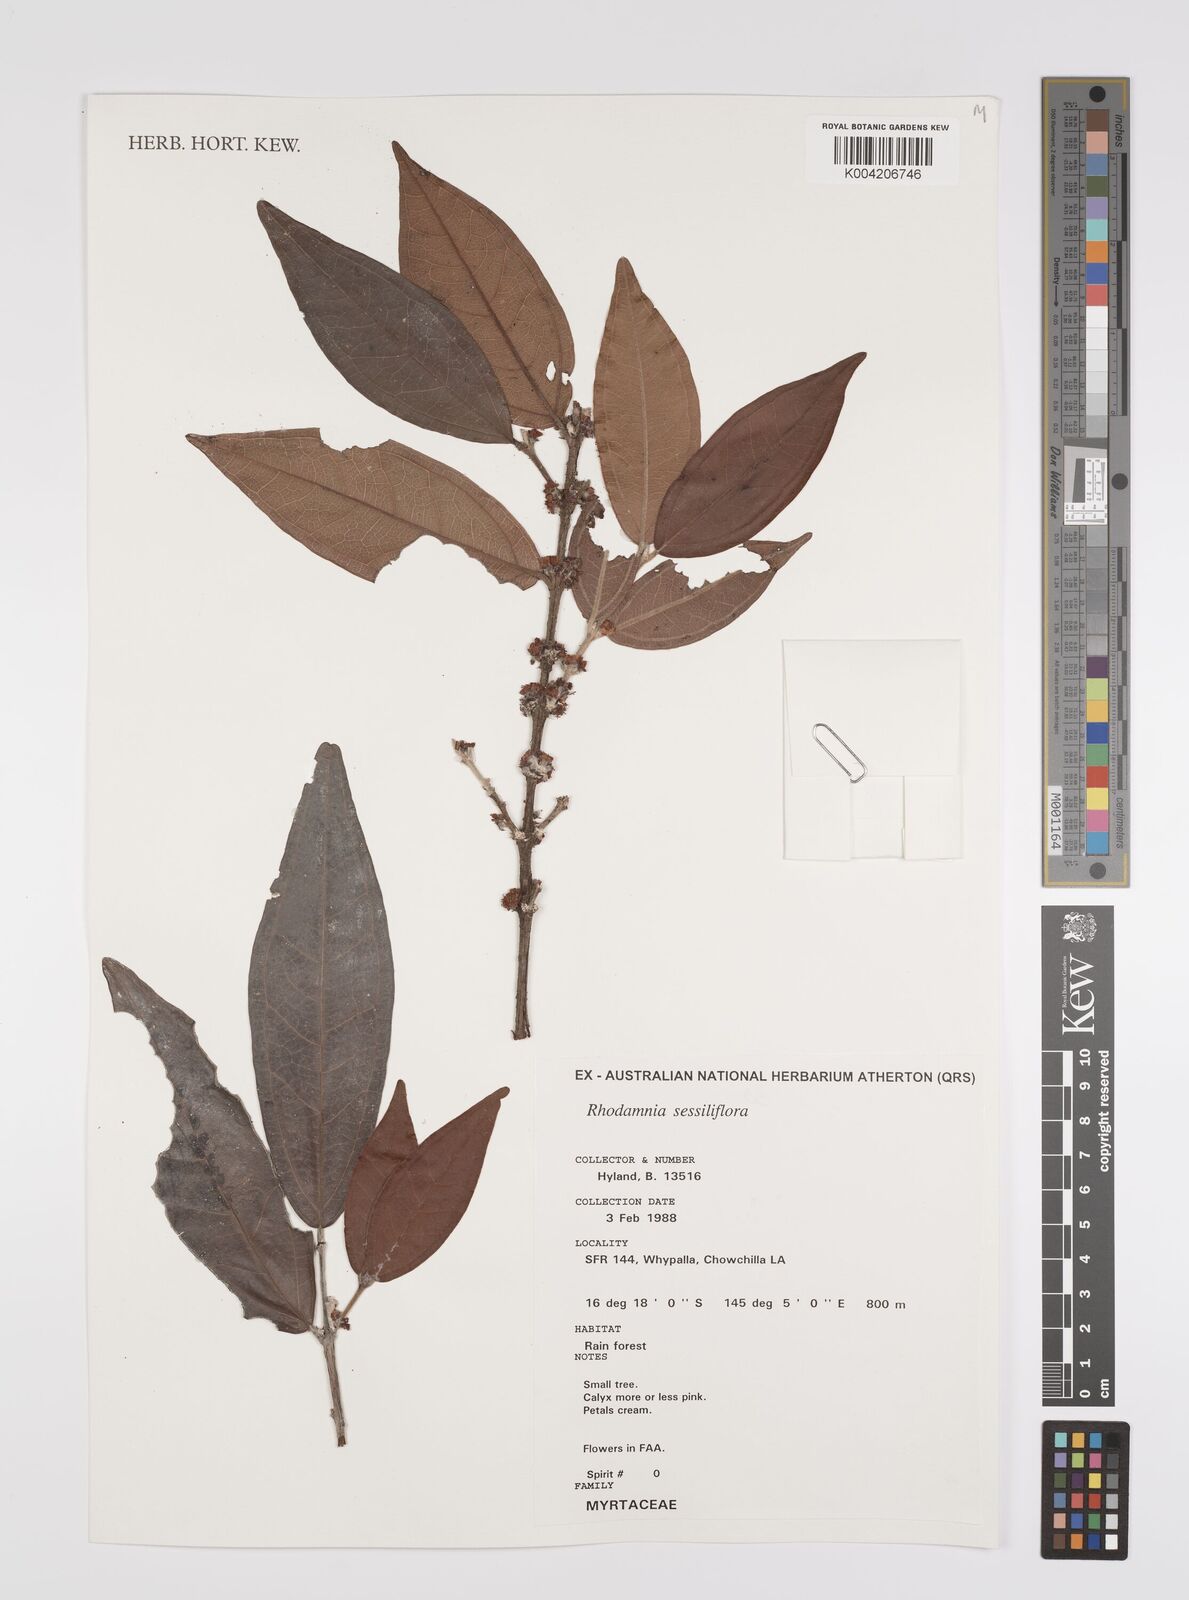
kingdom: Plantae
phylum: Tracheophyta
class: Magnoliopsida
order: Myrtales
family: Myrtaceae
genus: Rhodamnia
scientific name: Rhodamnia sessiliflora
